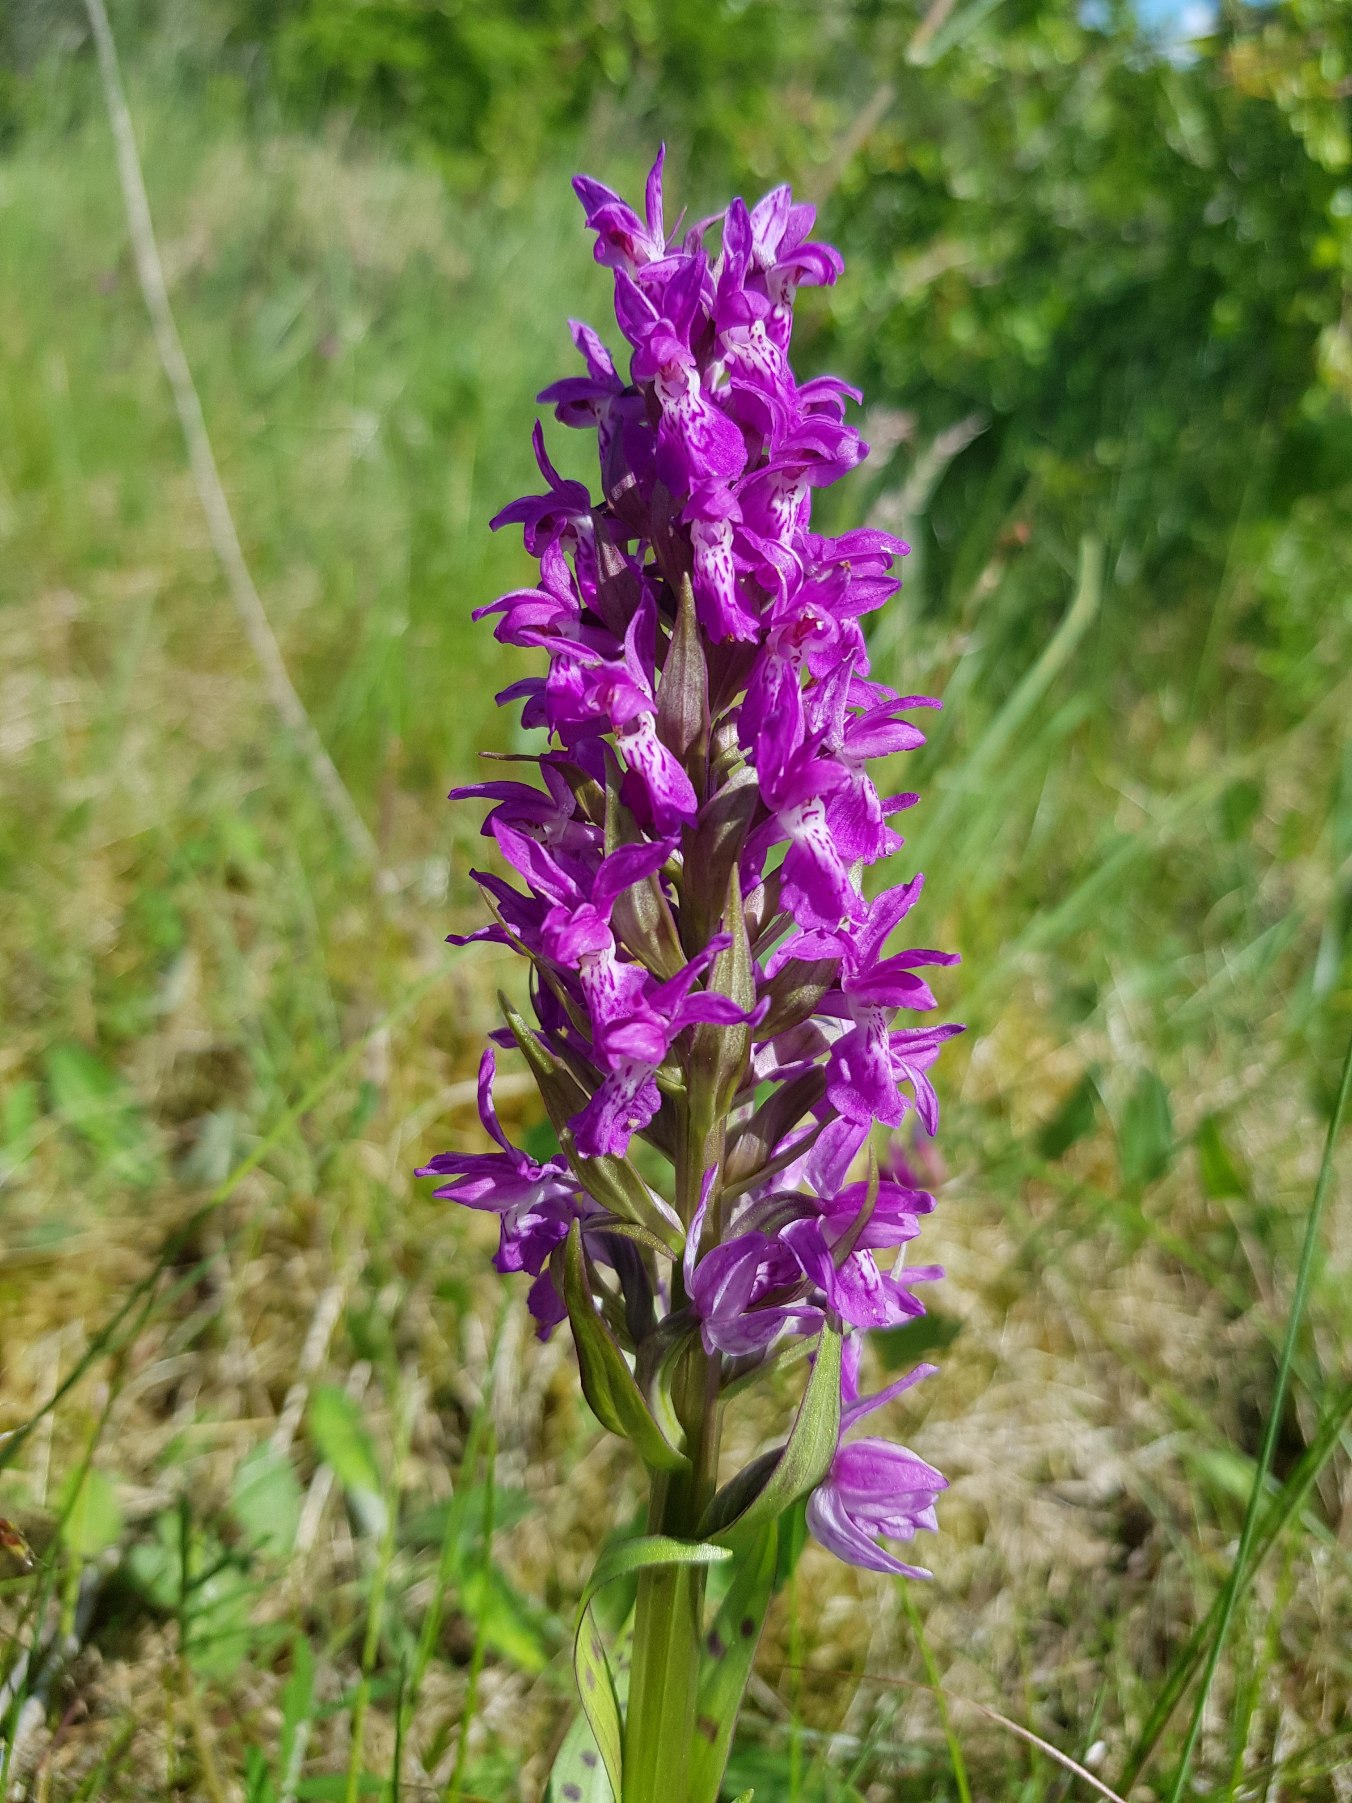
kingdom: Plantae
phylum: Tracheophyta
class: Liliopsida
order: Asparagales
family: Orchidaceae
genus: Dactylorhiza
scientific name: Dactylorhiza majalis
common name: Maj-gøgeurt
